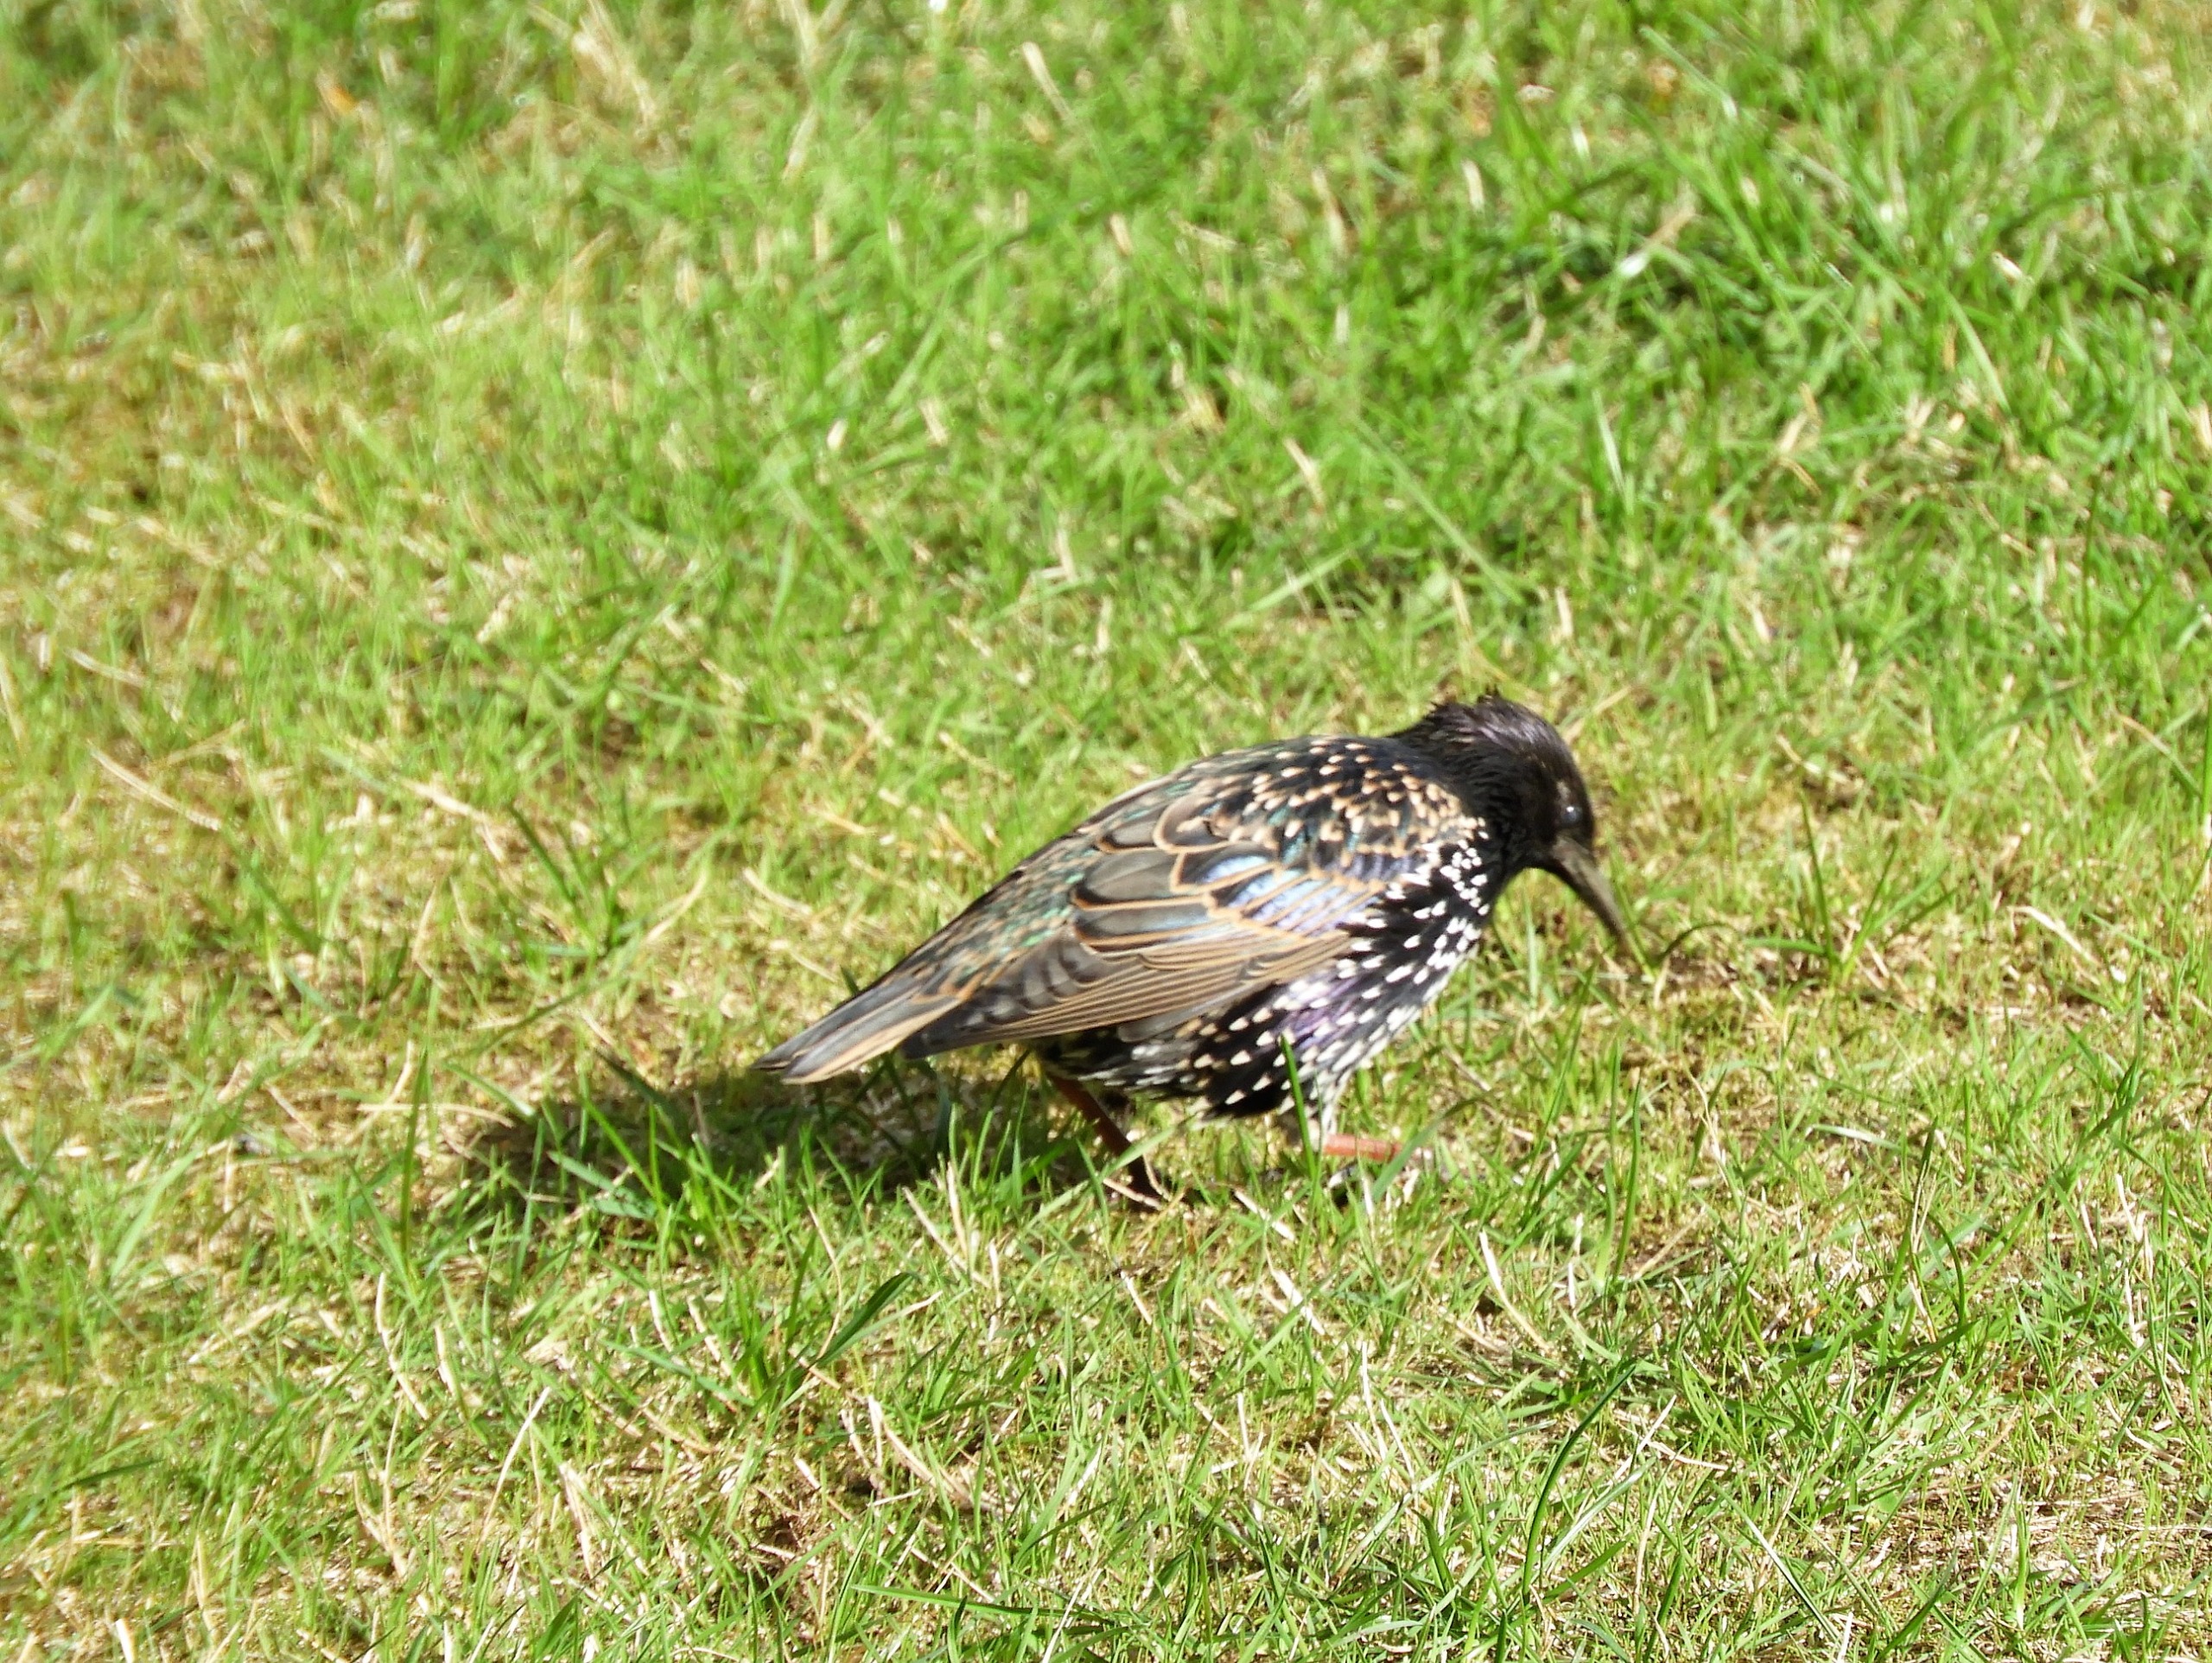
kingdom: Animalia
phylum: Chordata
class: Aves
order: Passeriformes
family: Sturnidae
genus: Sturnus
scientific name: Sturnus vulgaris
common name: Stær
